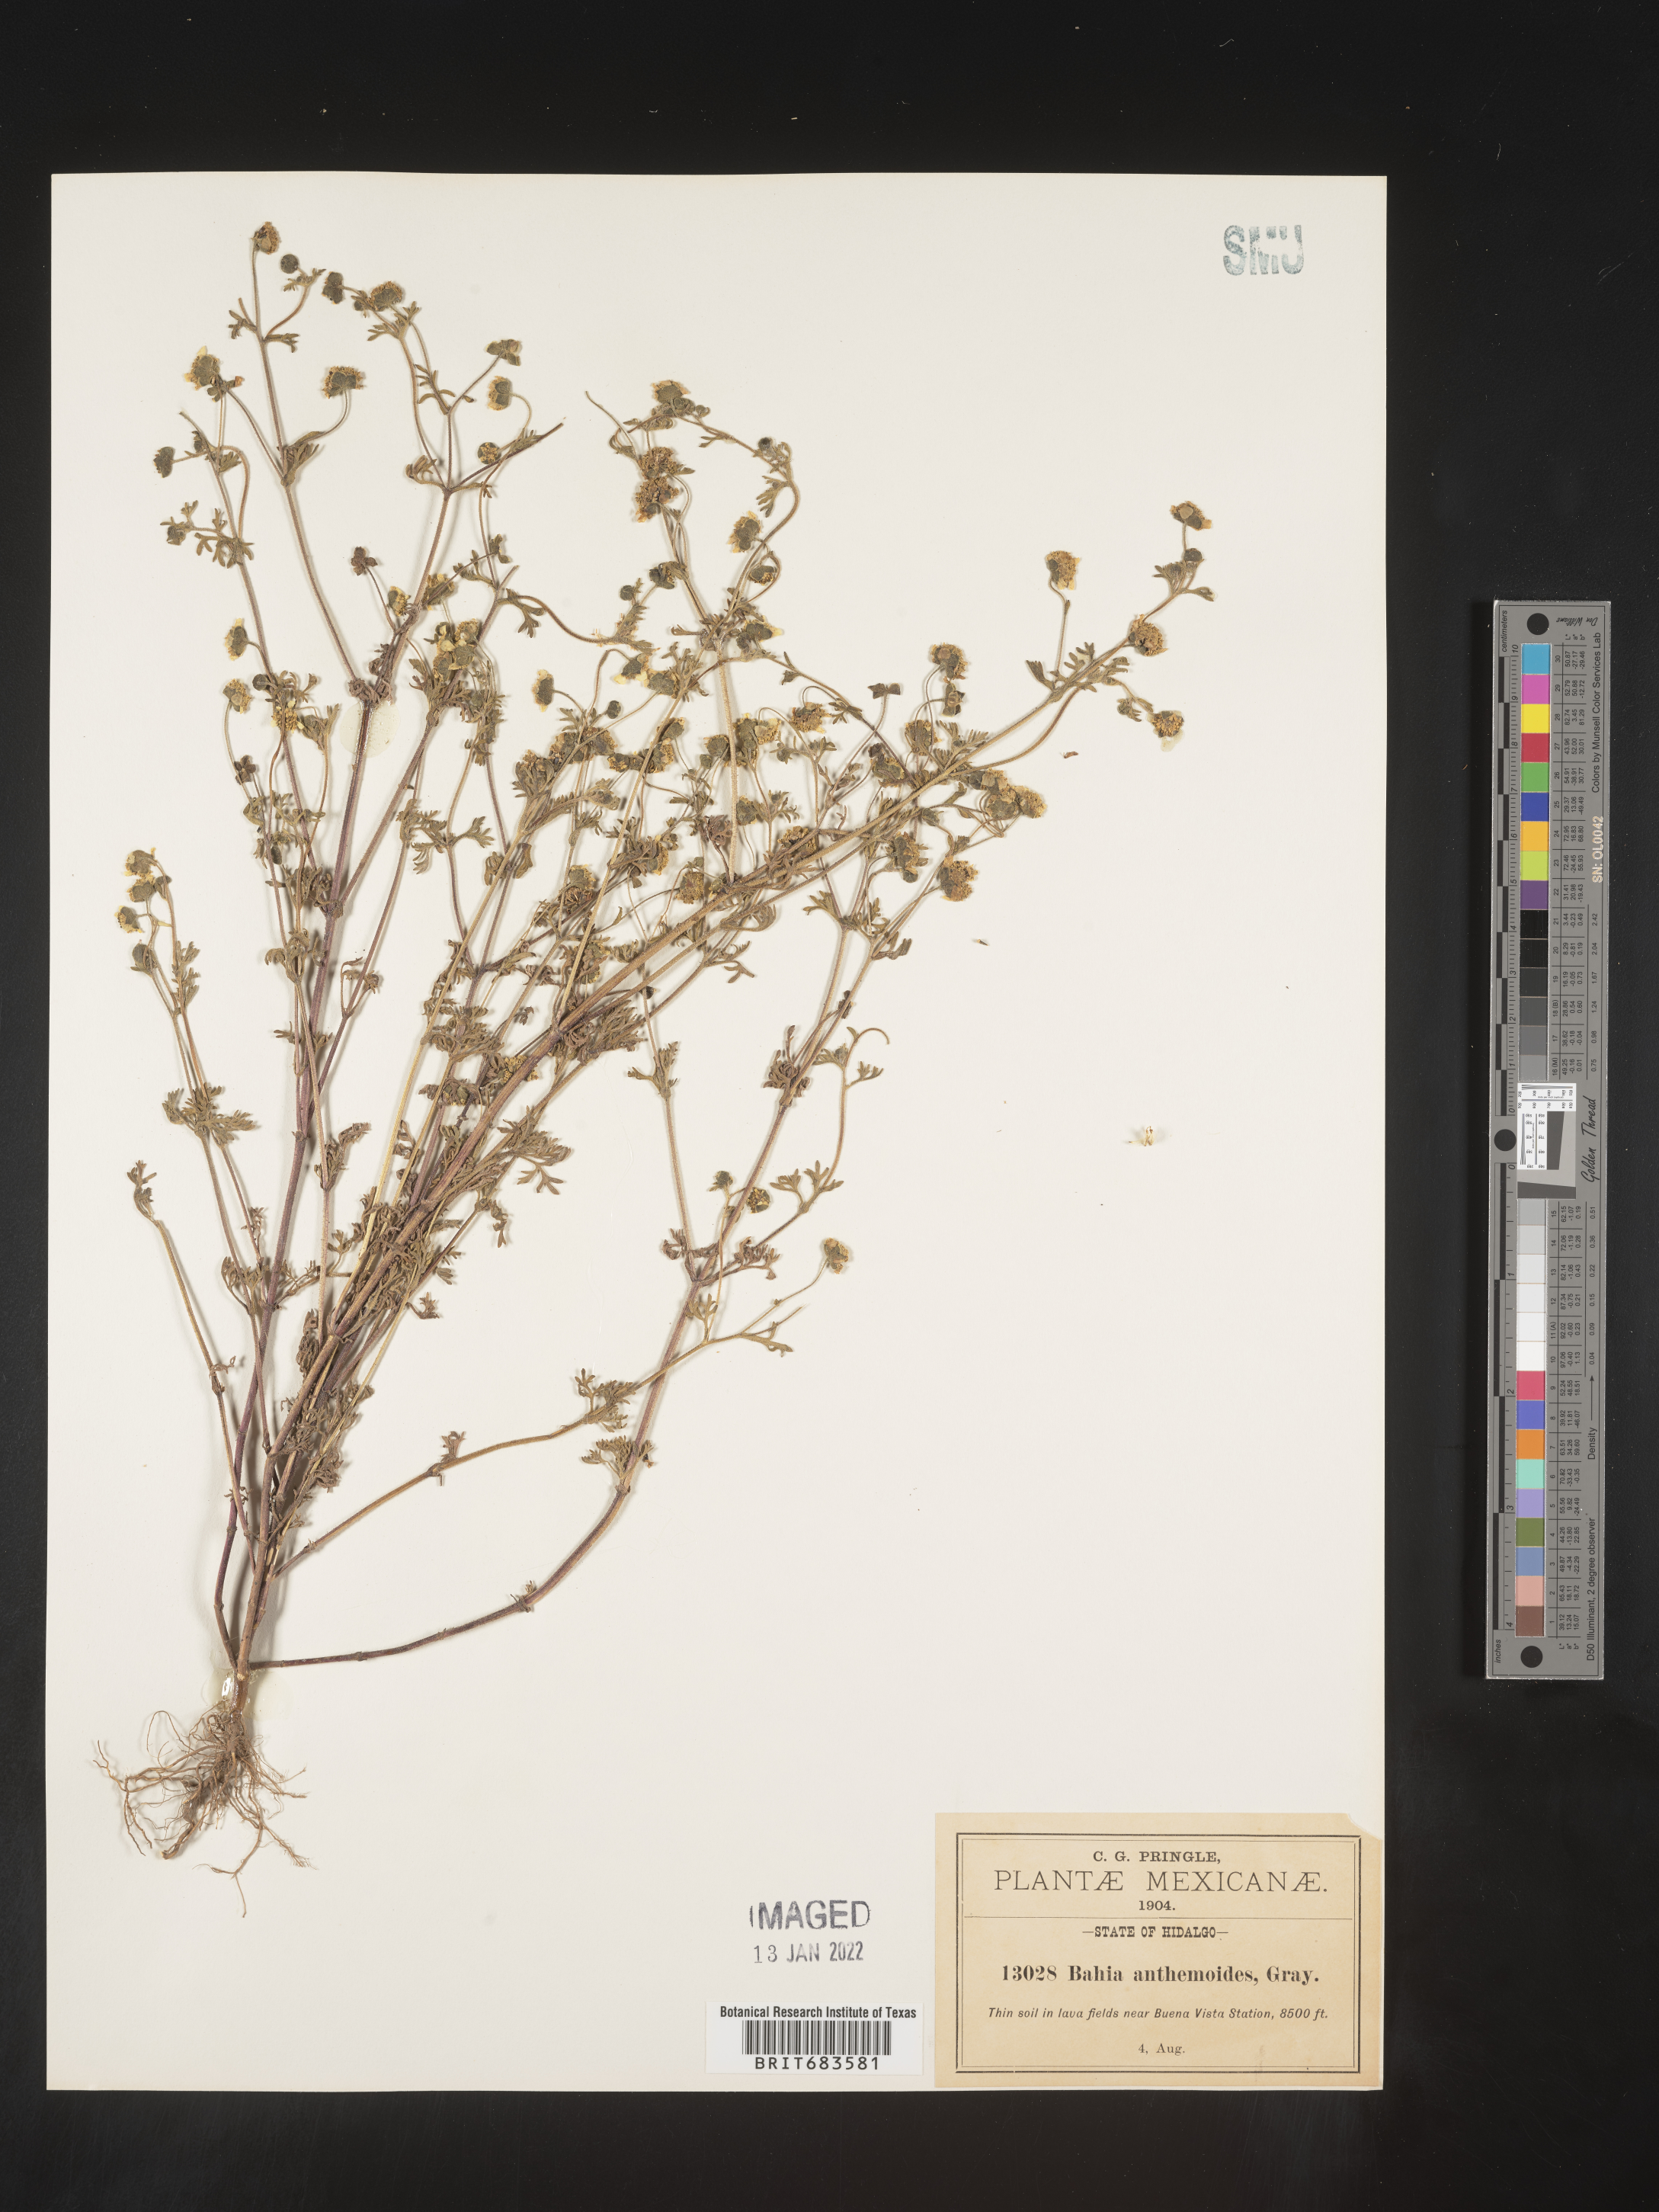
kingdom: Plantae
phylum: Tracheophyta
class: Magnoliopsida
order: Asterales
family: Asteraceae
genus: Bahia
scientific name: Bahia
